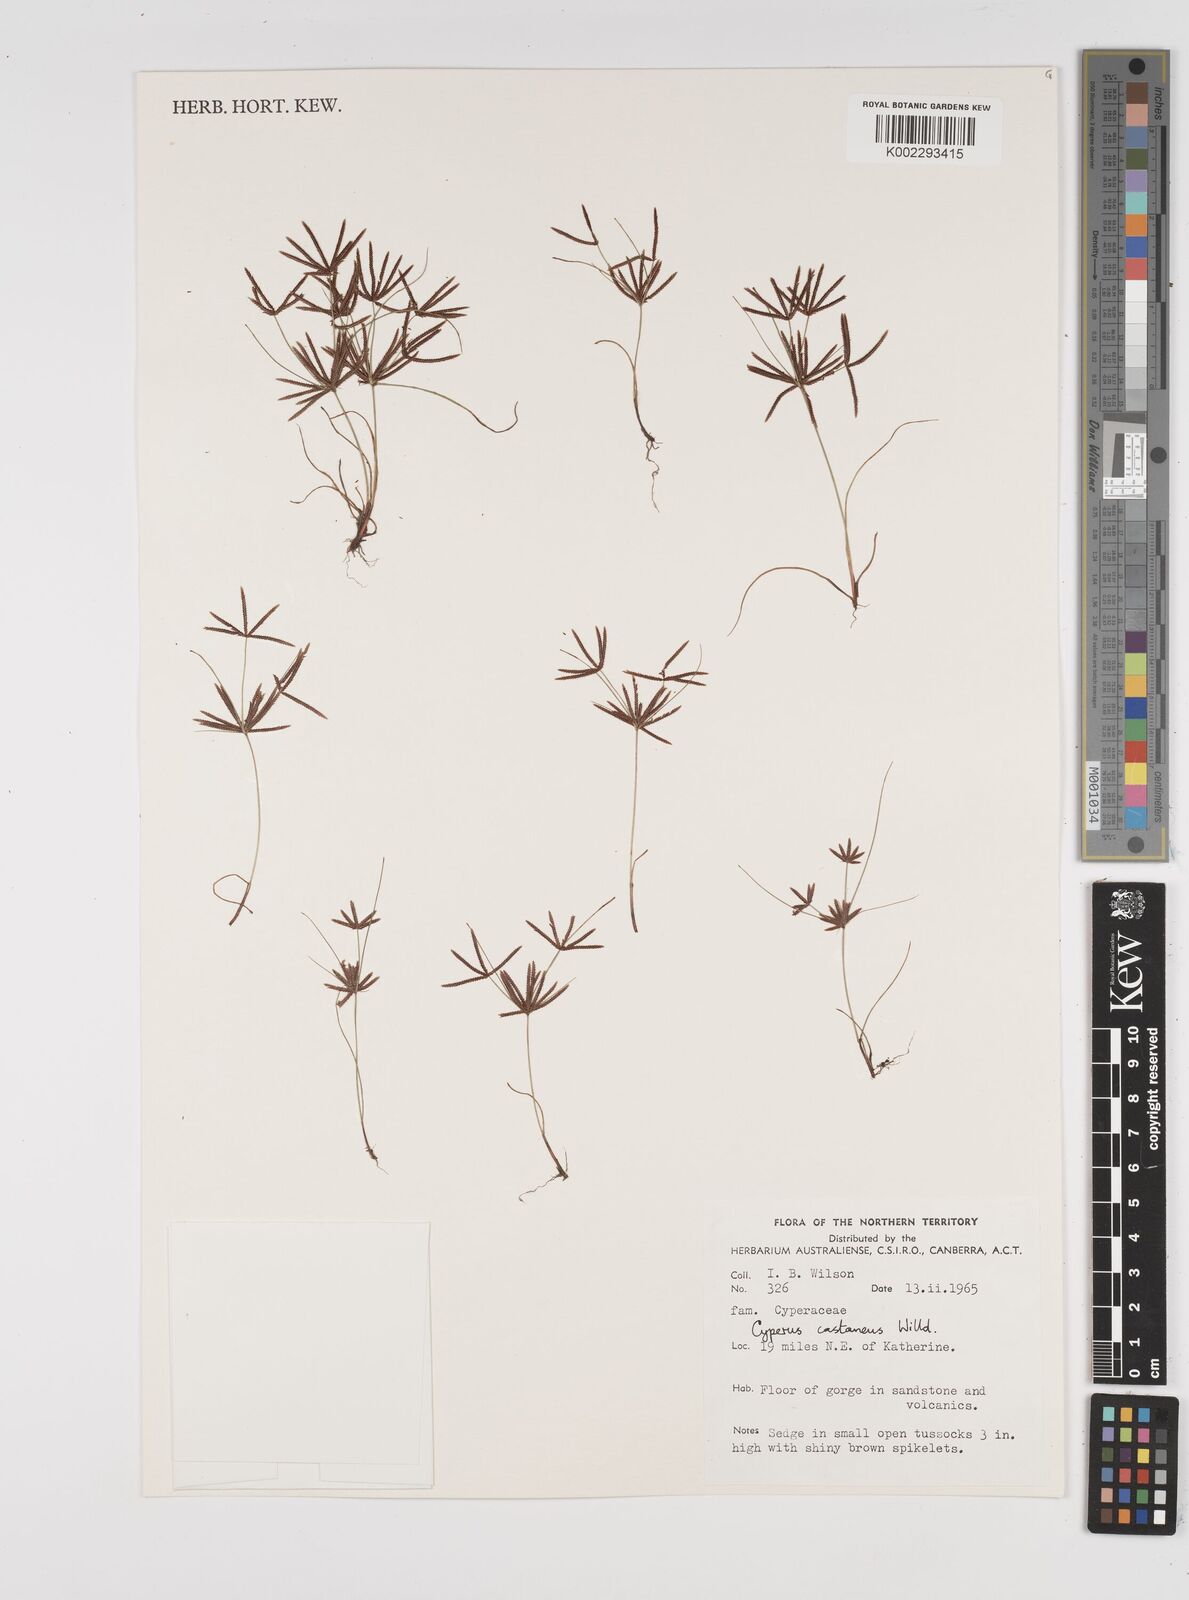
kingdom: Plantae
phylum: Tracheophyta
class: Liliopsida
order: Poales
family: Cyperaceae
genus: Cyperus
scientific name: Cyperus castaneus
